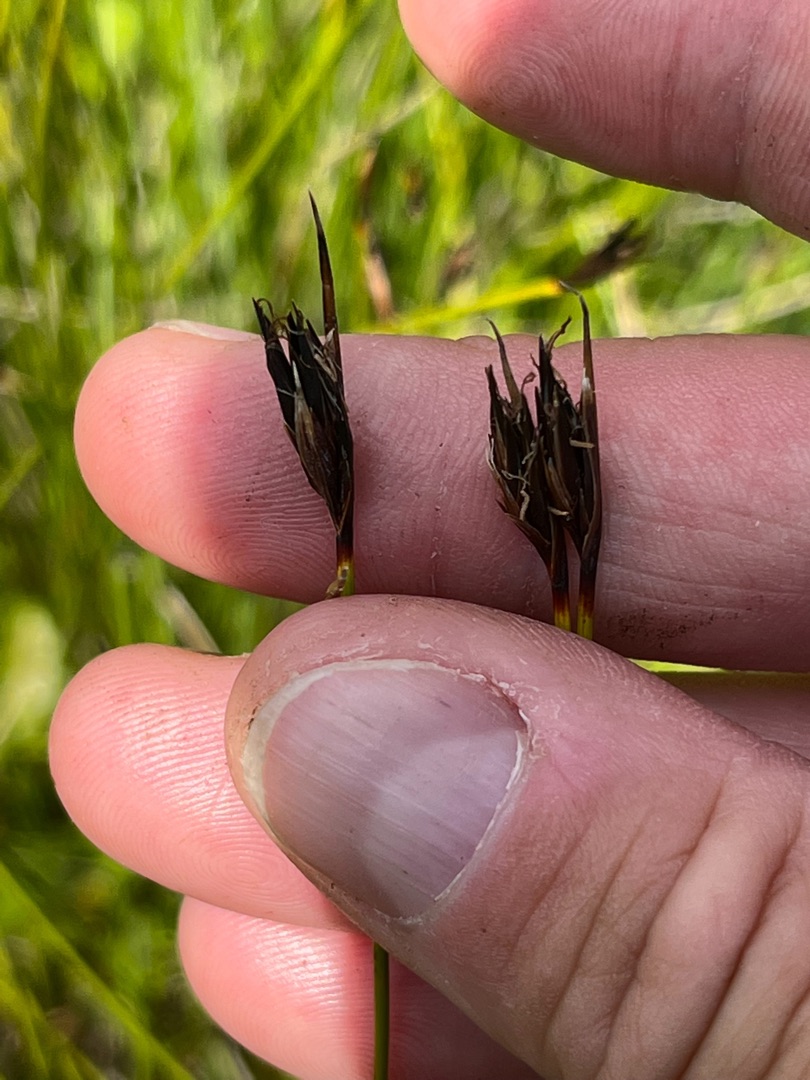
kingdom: Plantae
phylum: Tracheophyta
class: Liliopsida
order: Poales
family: Cyperaceae
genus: Schoenus
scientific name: Schoenus ferrugineus
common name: Rust-skæne
